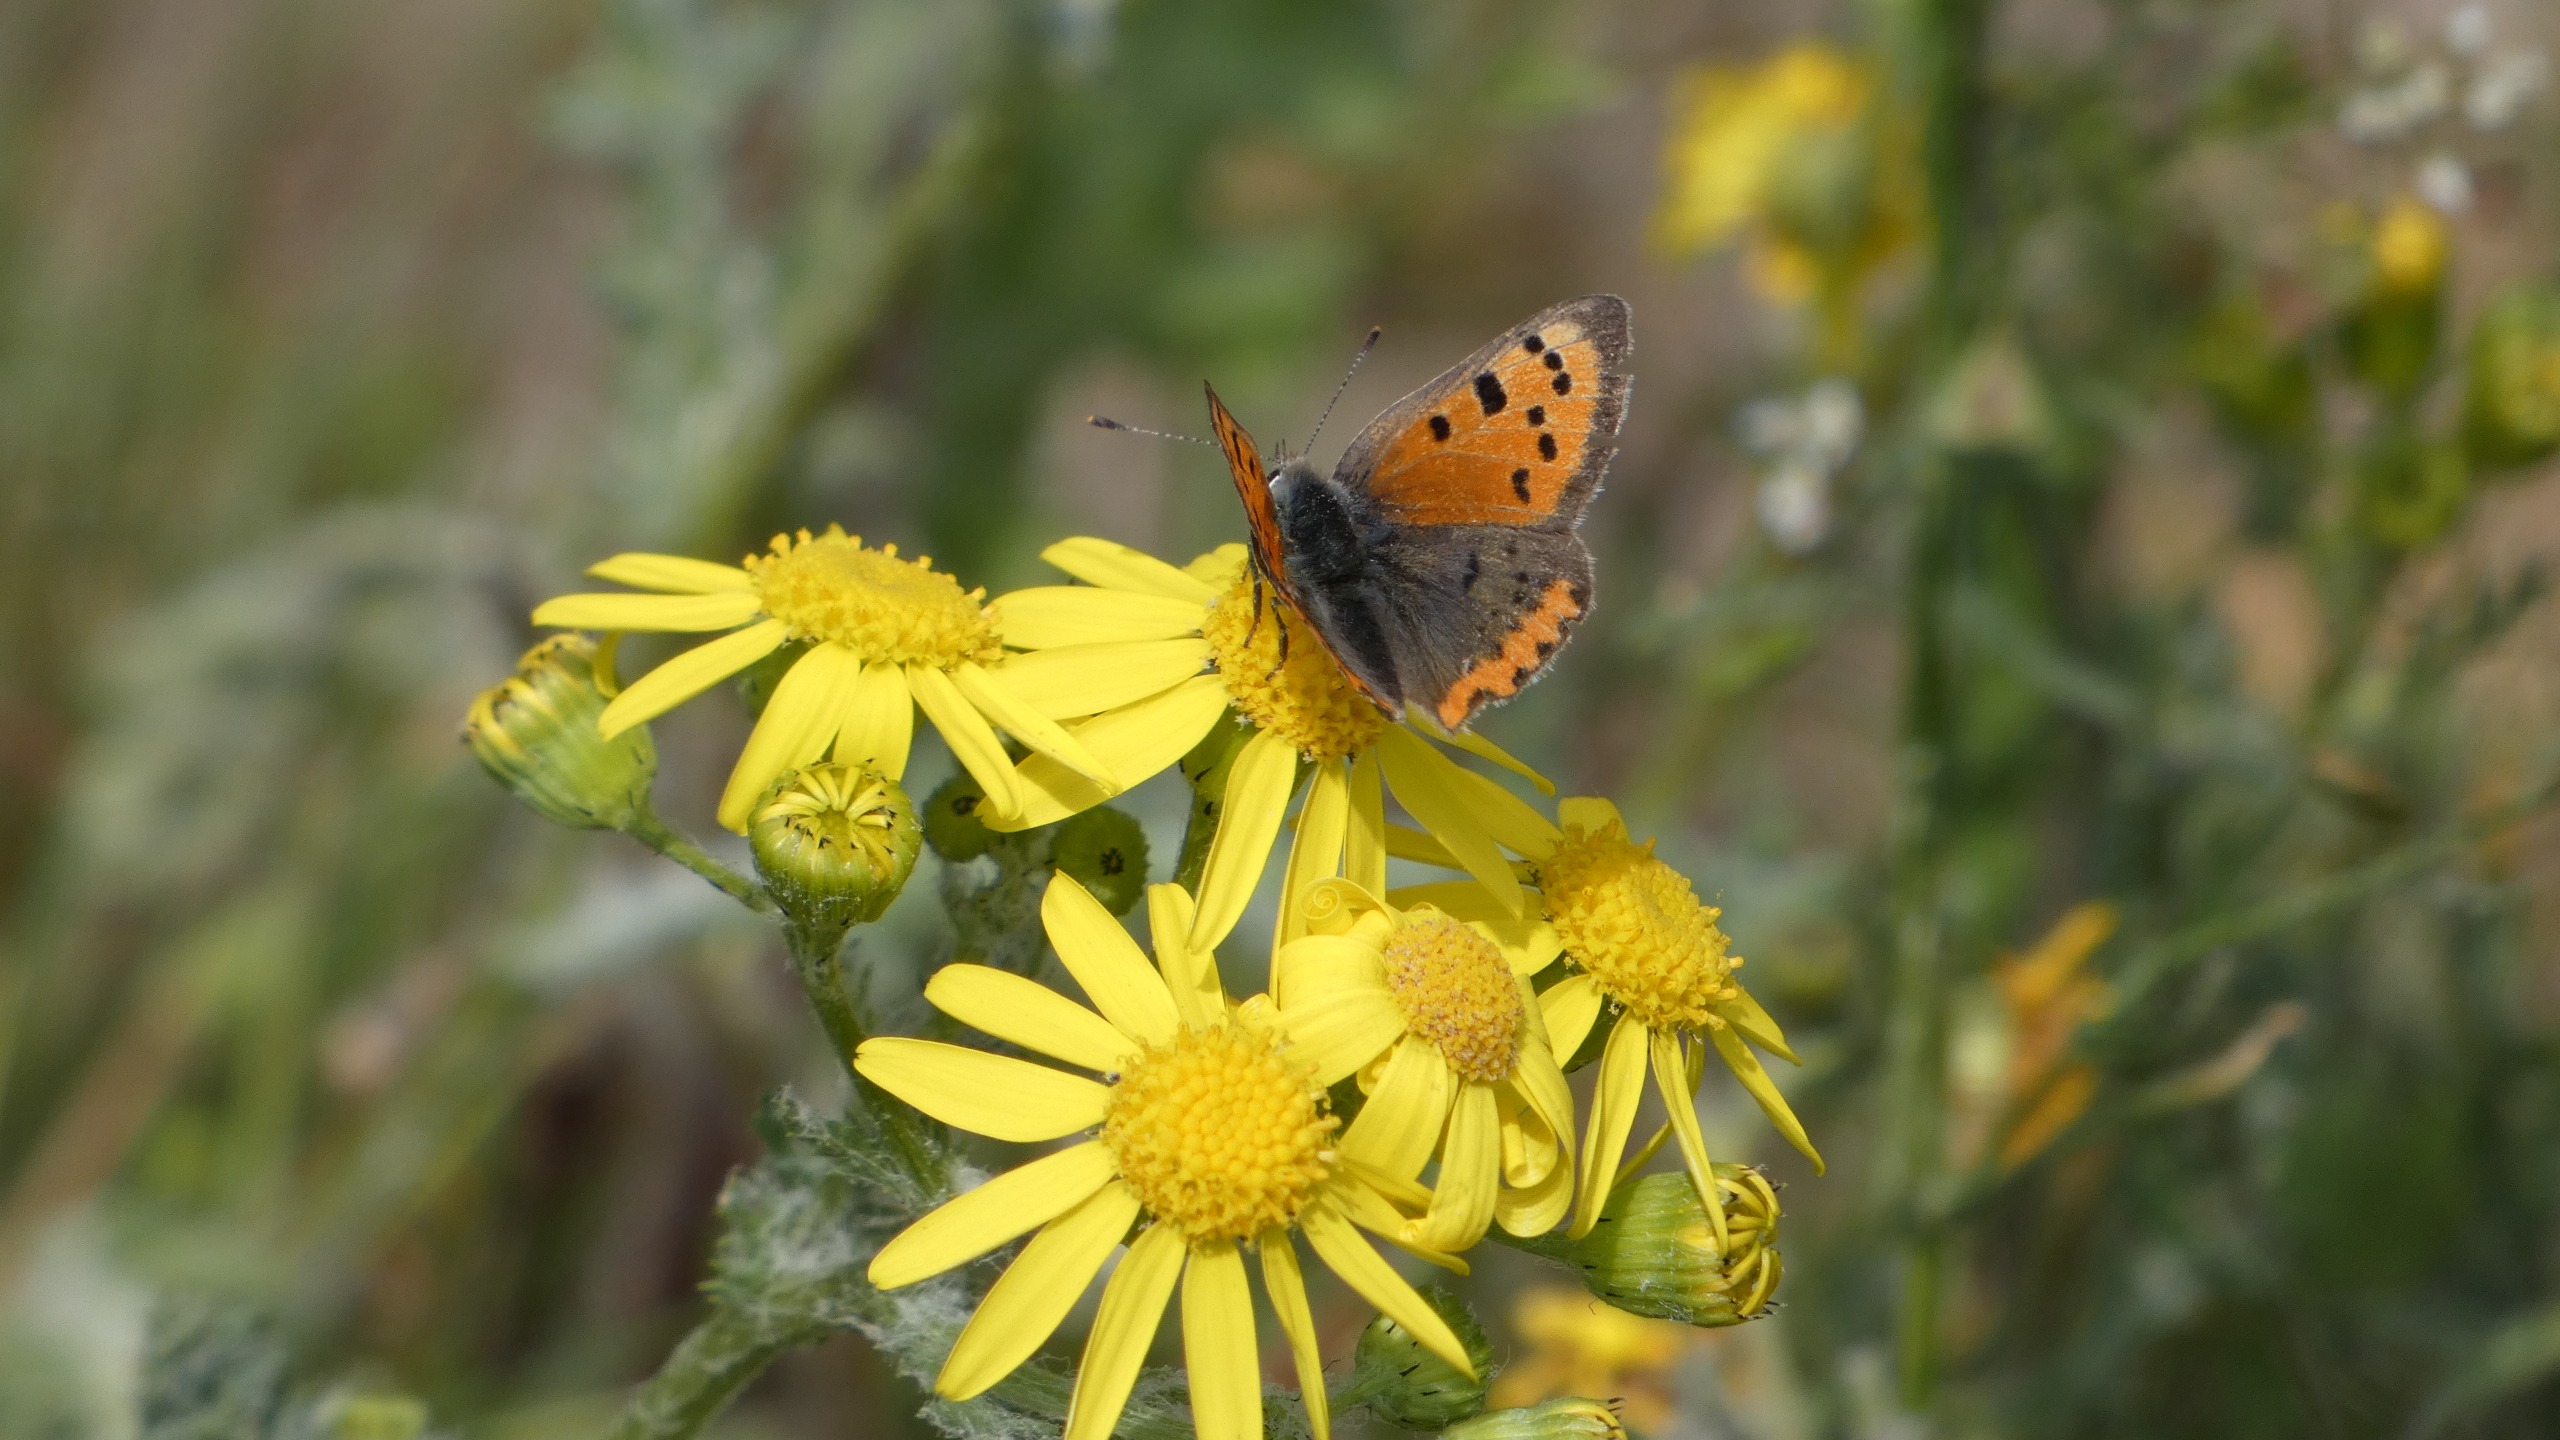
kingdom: Animalia
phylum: Arthropoda
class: Insecta
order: Lepidoptera
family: Lycaenidae
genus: Lycaena
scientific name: Lycaena phlaeas
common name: Lille ildfugl
